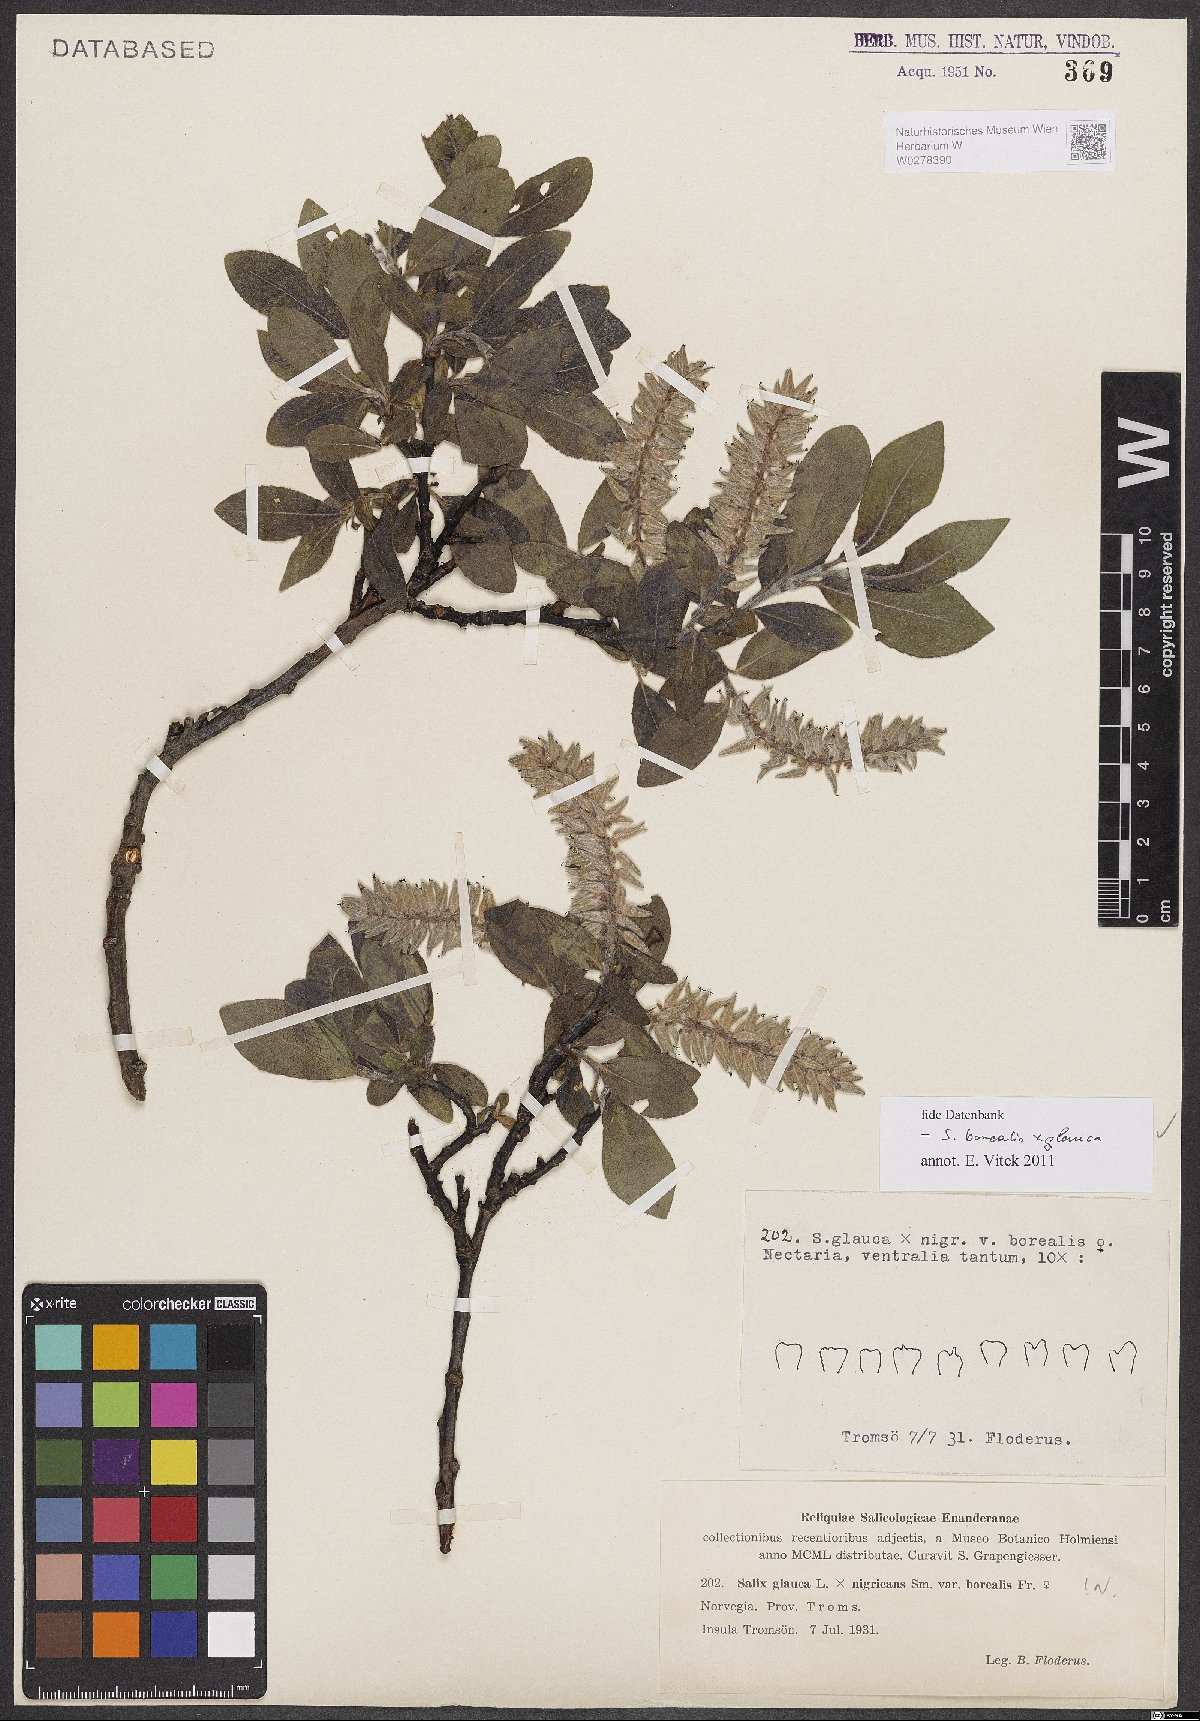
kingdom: Plantae
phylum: Tracheophyta
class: Magnoliopsida
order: Malpighiales
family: Salicaceae
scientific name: Salicaceae
